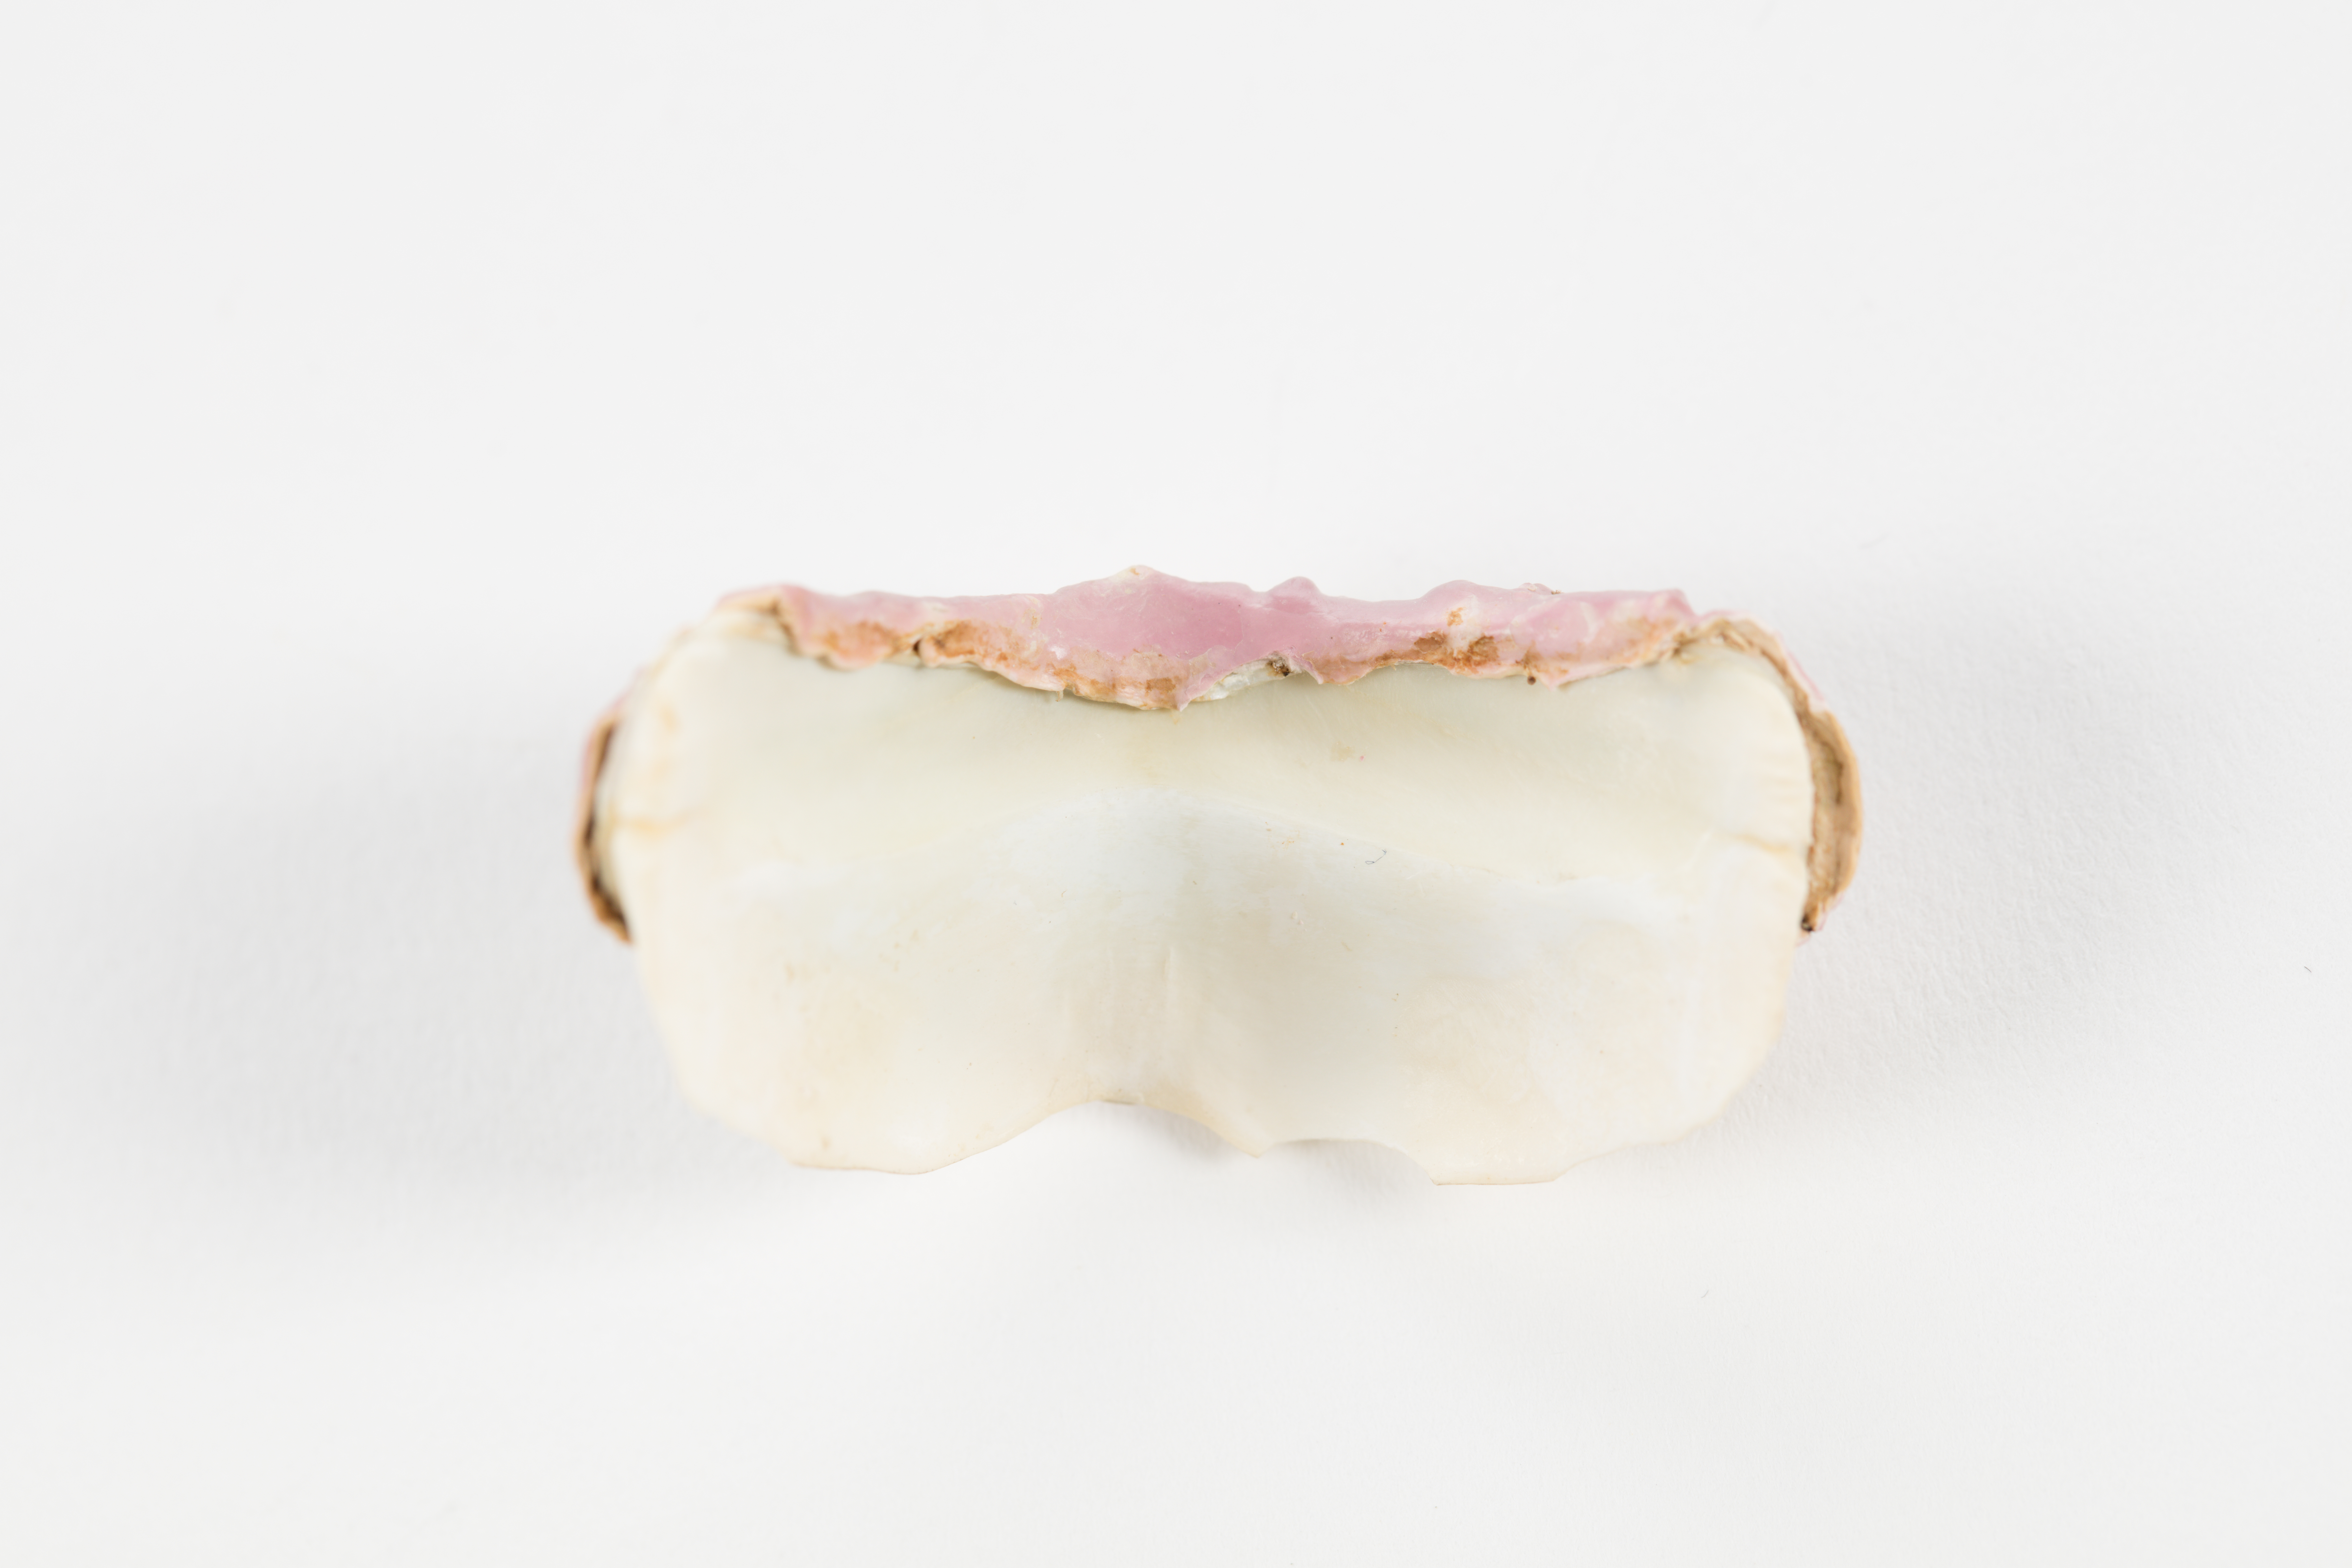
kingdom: Plantae
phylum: Rhodophyta
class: Florideophyceae
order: Corallinales
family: Hapalidiaceae
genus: Lithothamnion
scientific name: Lithothamnion
